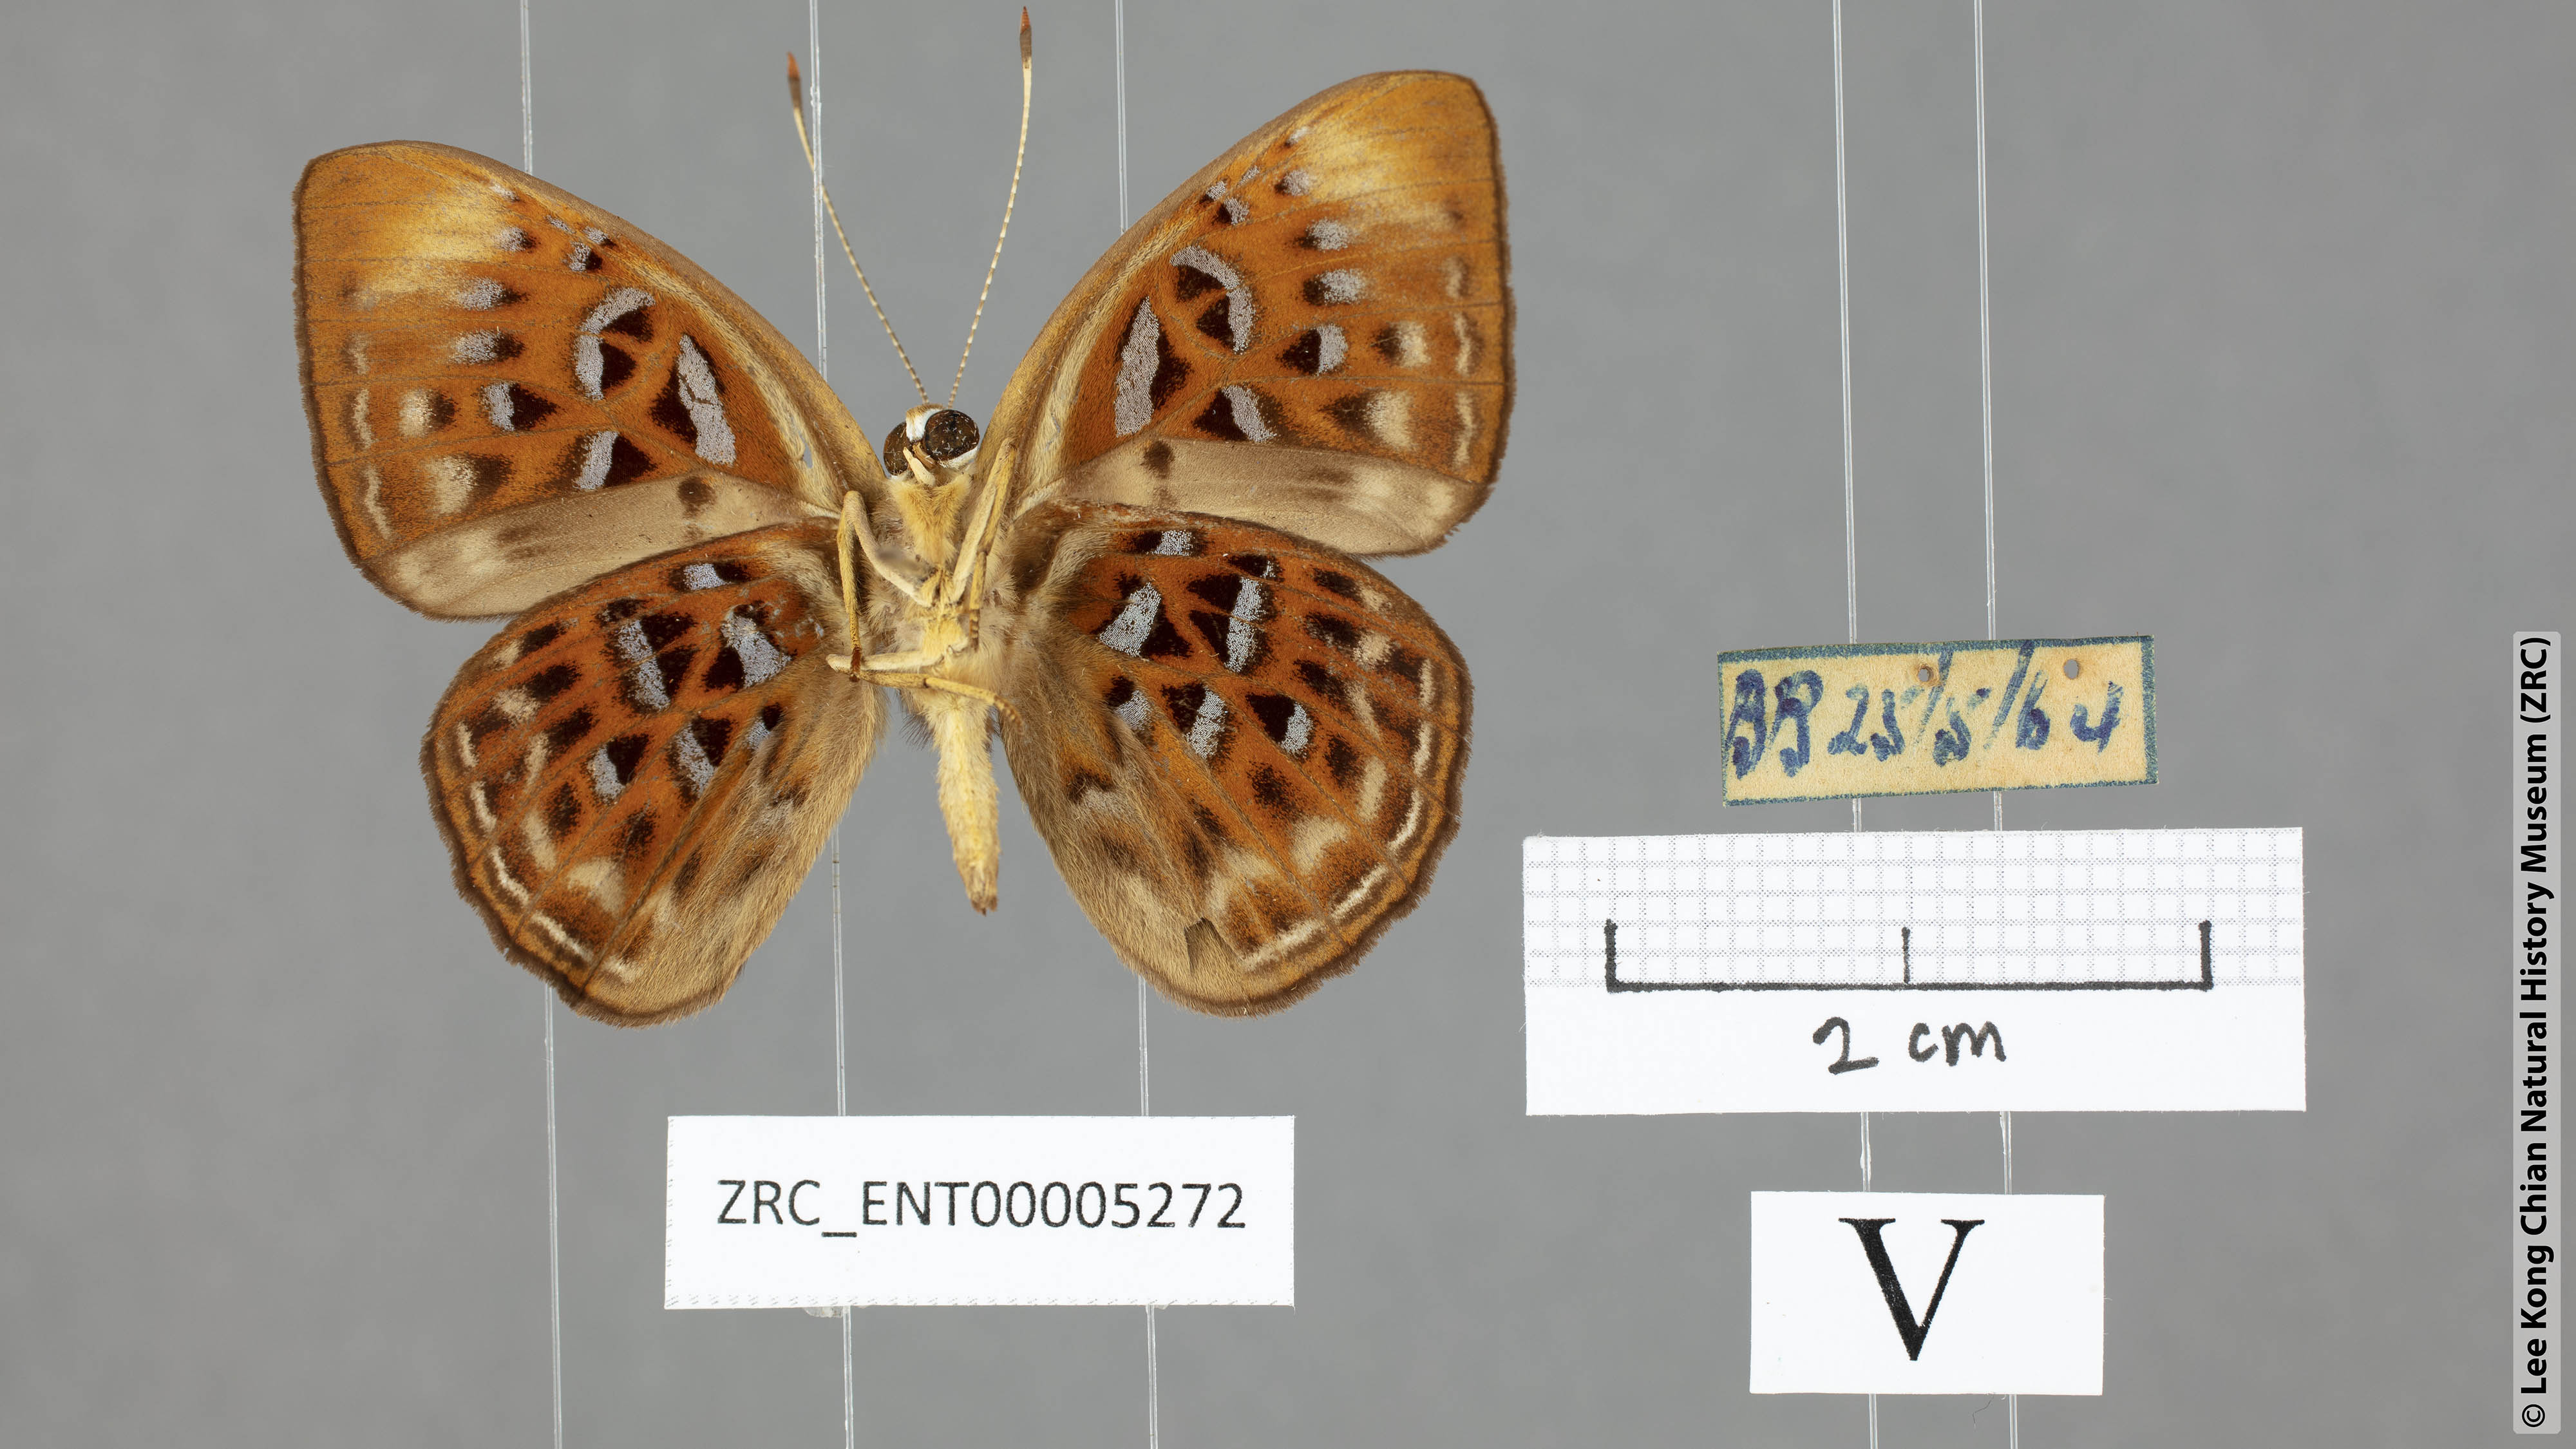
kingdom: Animalia
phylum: Arthropoda
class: Insecta
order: Lepidoptera
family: Erebidae
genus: Dysschema
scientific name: Dysschema
